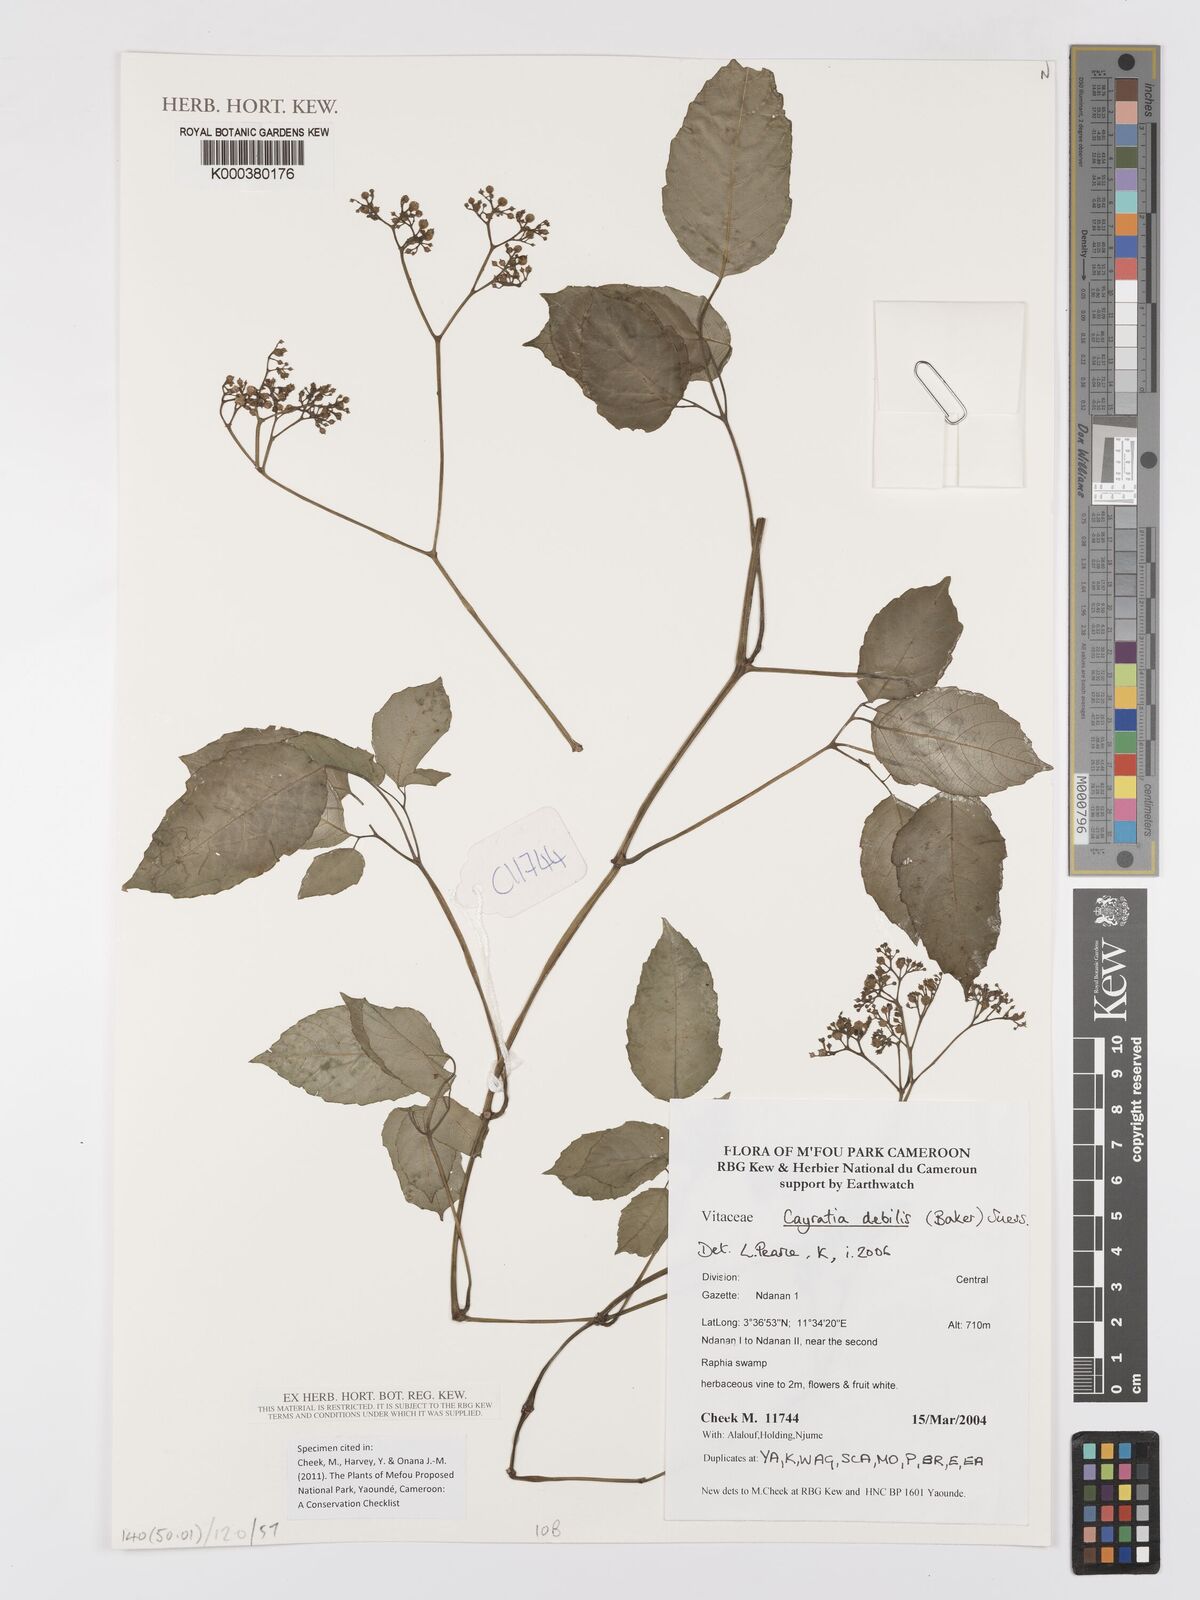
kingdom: Plantae
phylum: Tracheophyta
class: Magnoliopsida
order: Vitales
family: Vitaceae
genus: Afrocayratia
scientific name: Afrocayratia debilis
